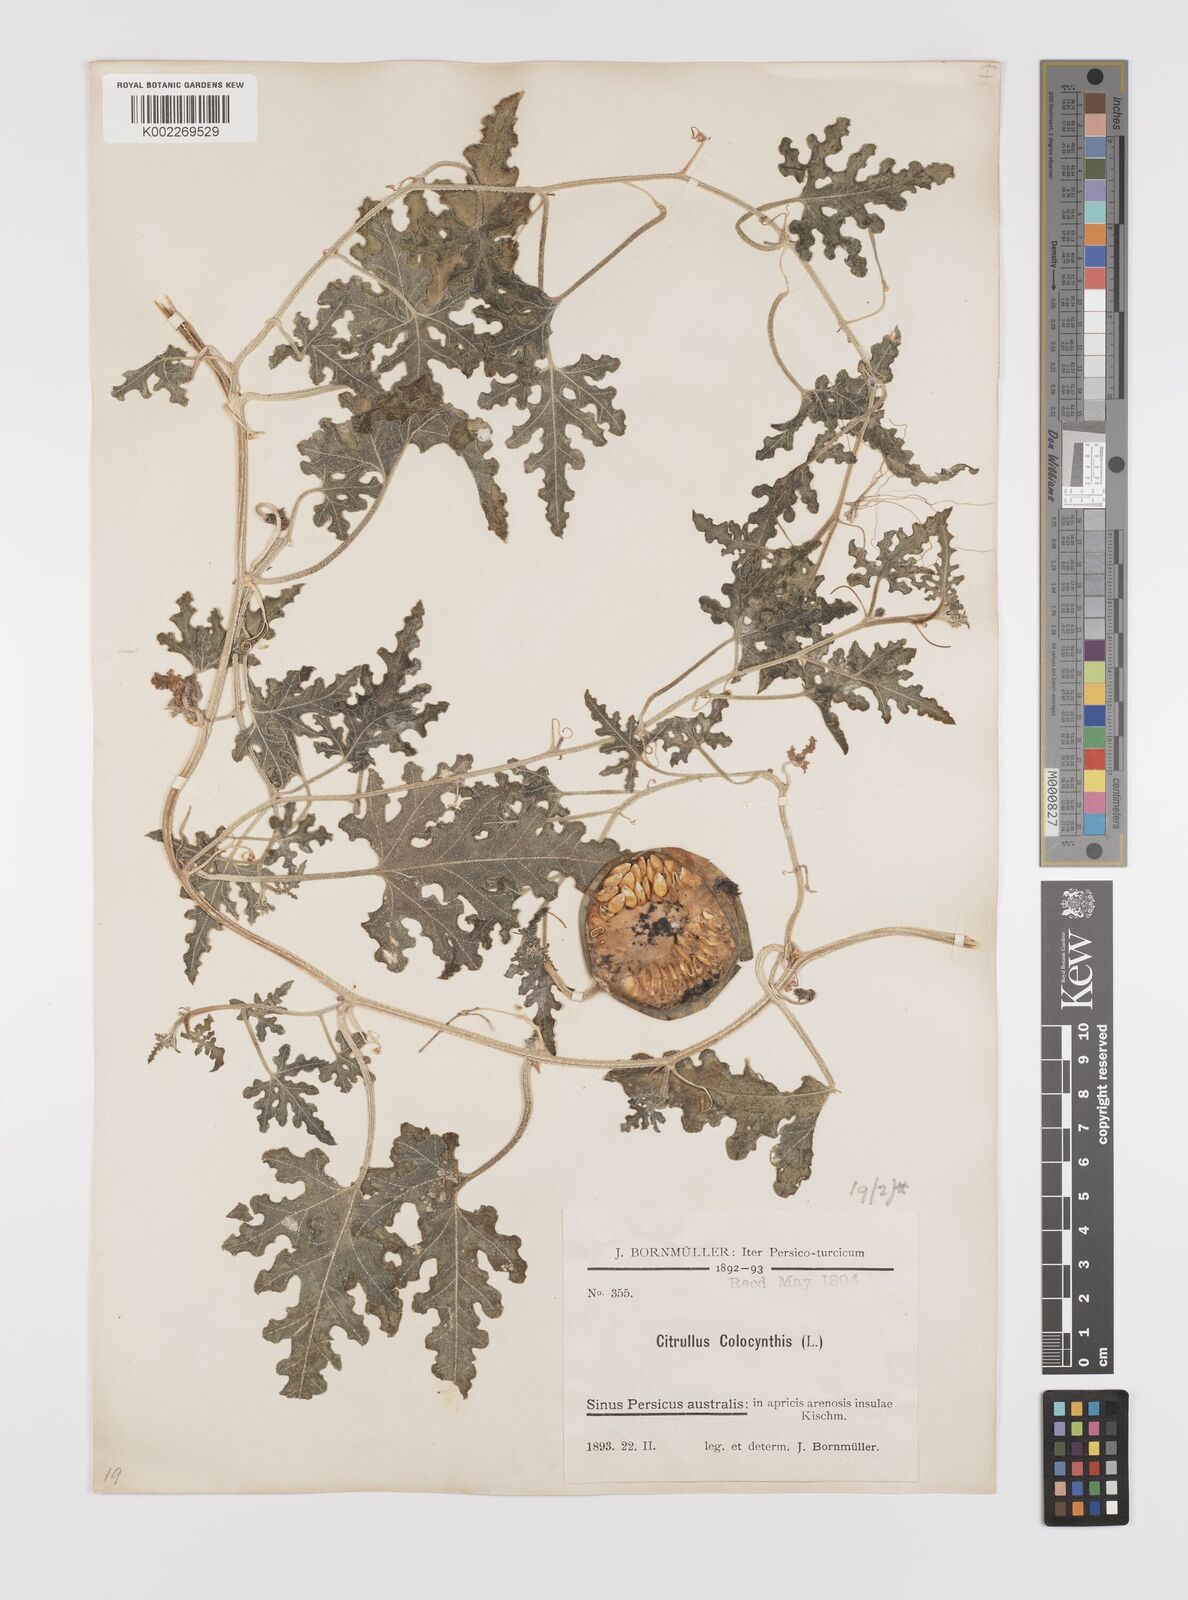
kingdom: Plantae
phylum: Tracheophyta
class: Magnoliopsida
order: Cucurbitales
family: Cucurbitaceae
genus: Citrullus
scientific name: Citrullus colocynthis
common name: Colocynth
